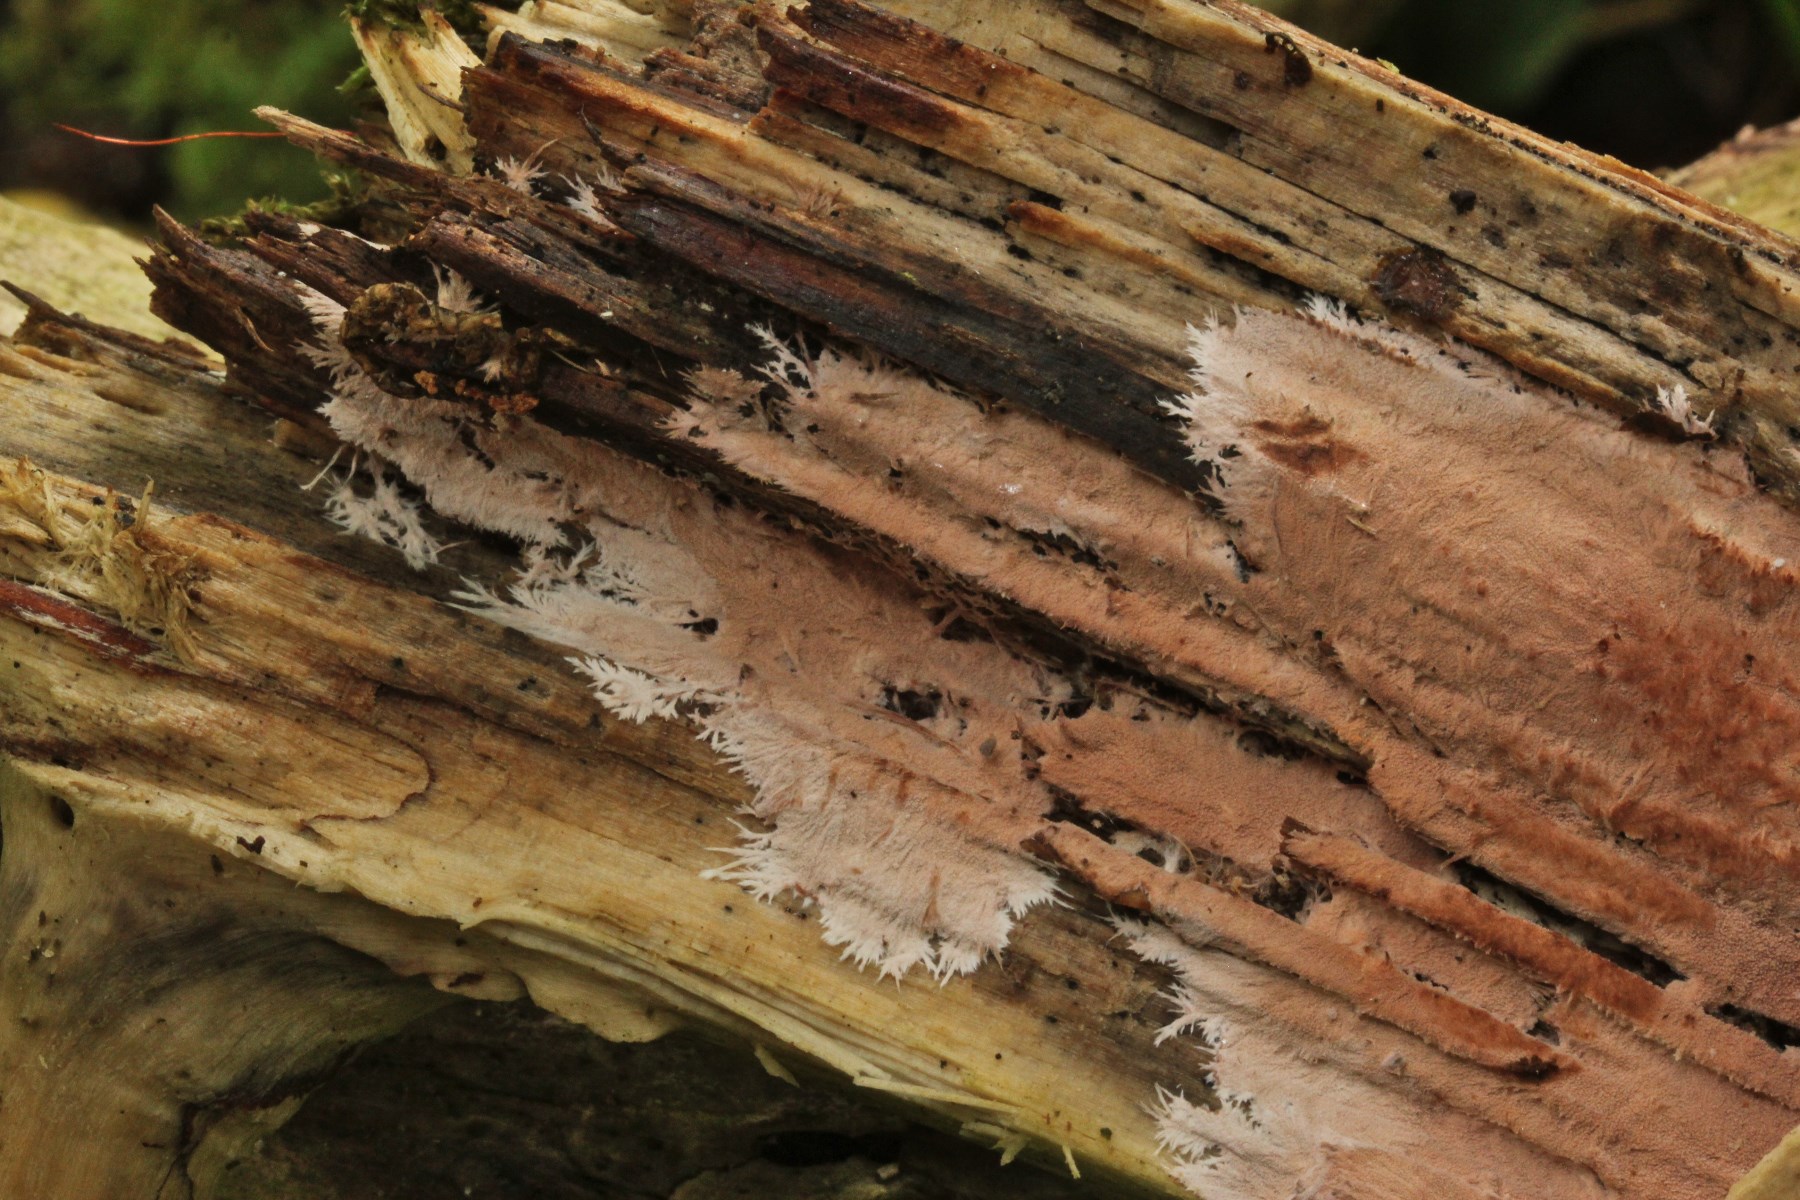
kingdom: Fungi
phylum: Basidiomycota
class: Agaricomycetes
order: Polyporales
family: Steccherinaceae
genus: Steccherinum
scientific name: Steccherinum fimbriatum
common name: trådet skønpig
